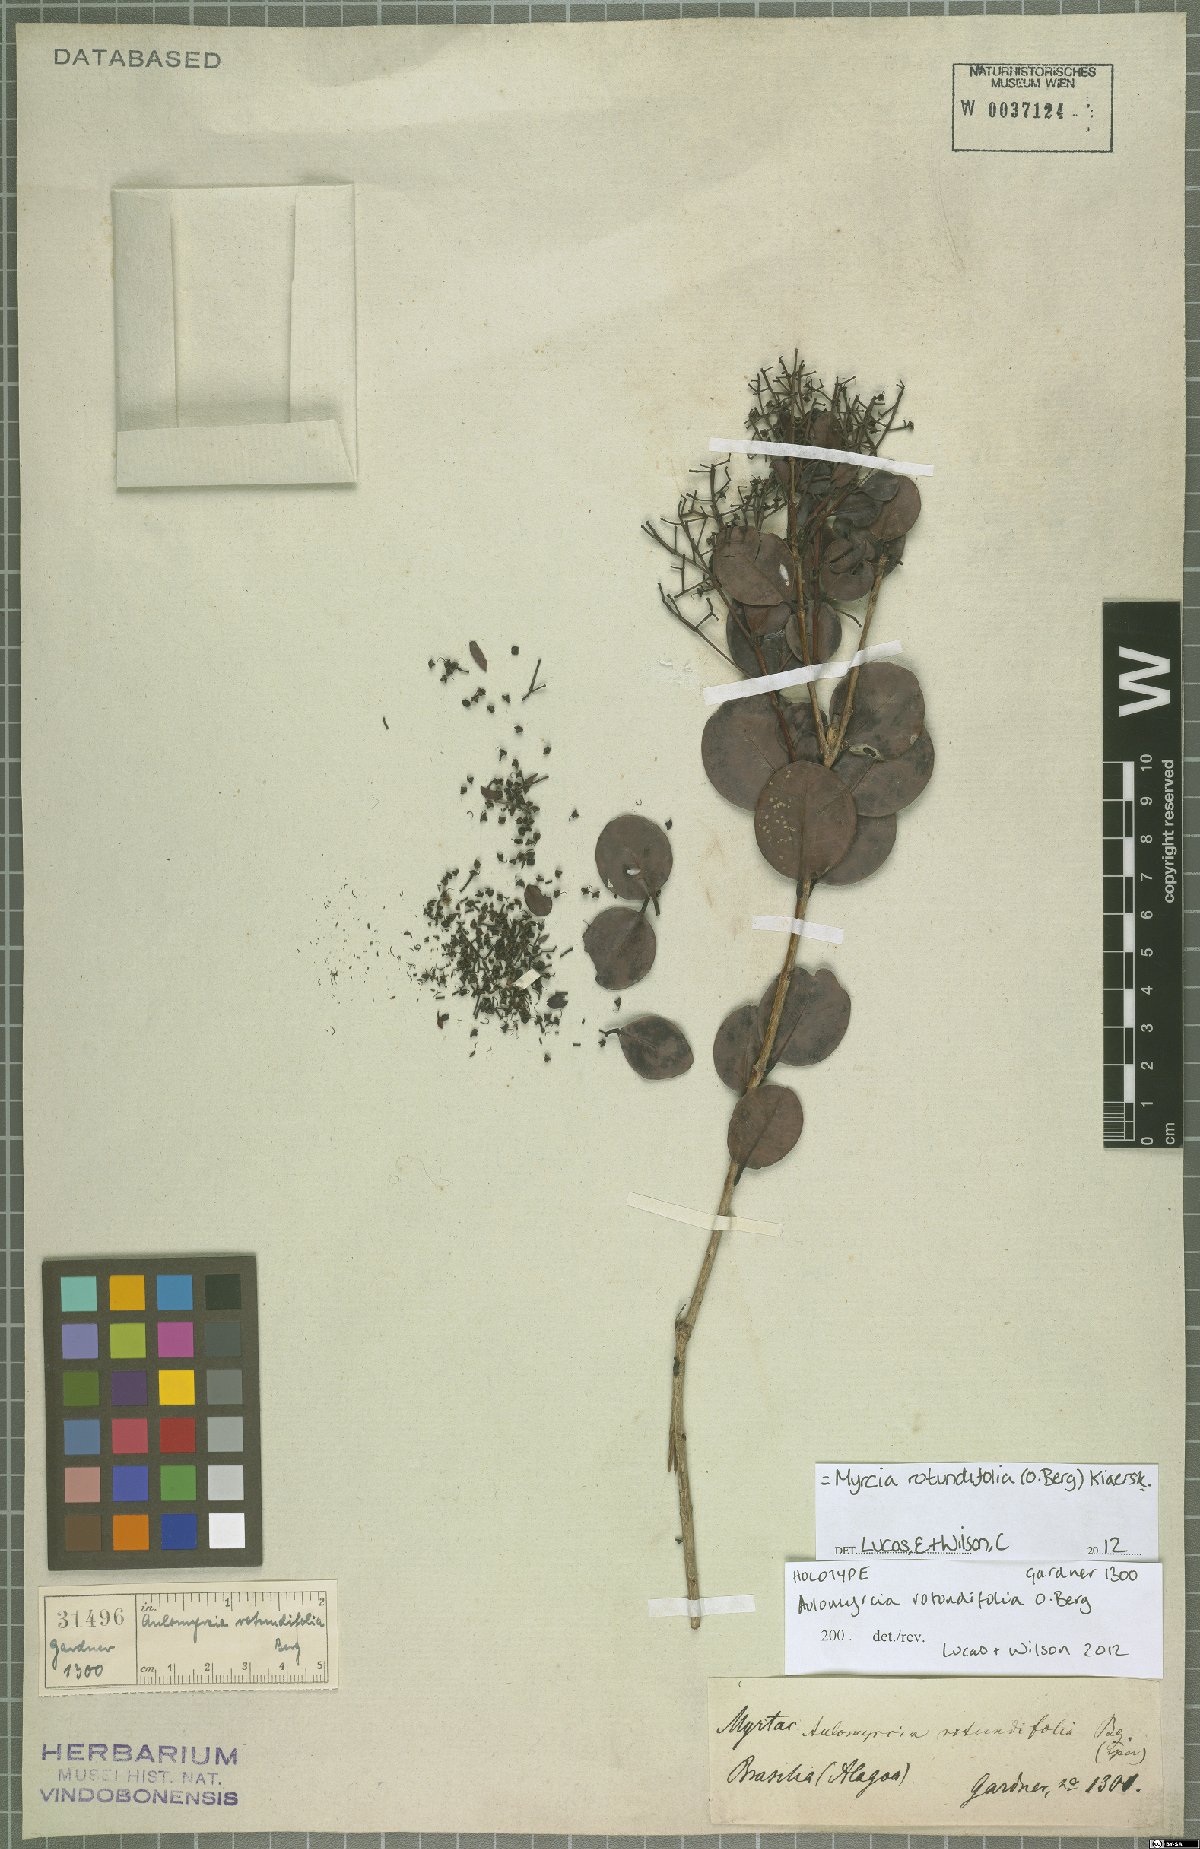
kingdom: Plantae
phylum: Tracheophyta
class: Magnoliopsida
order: Myrtales
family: Myrtaceae
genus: Myrcia
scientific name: Myrcia rotundifolia
